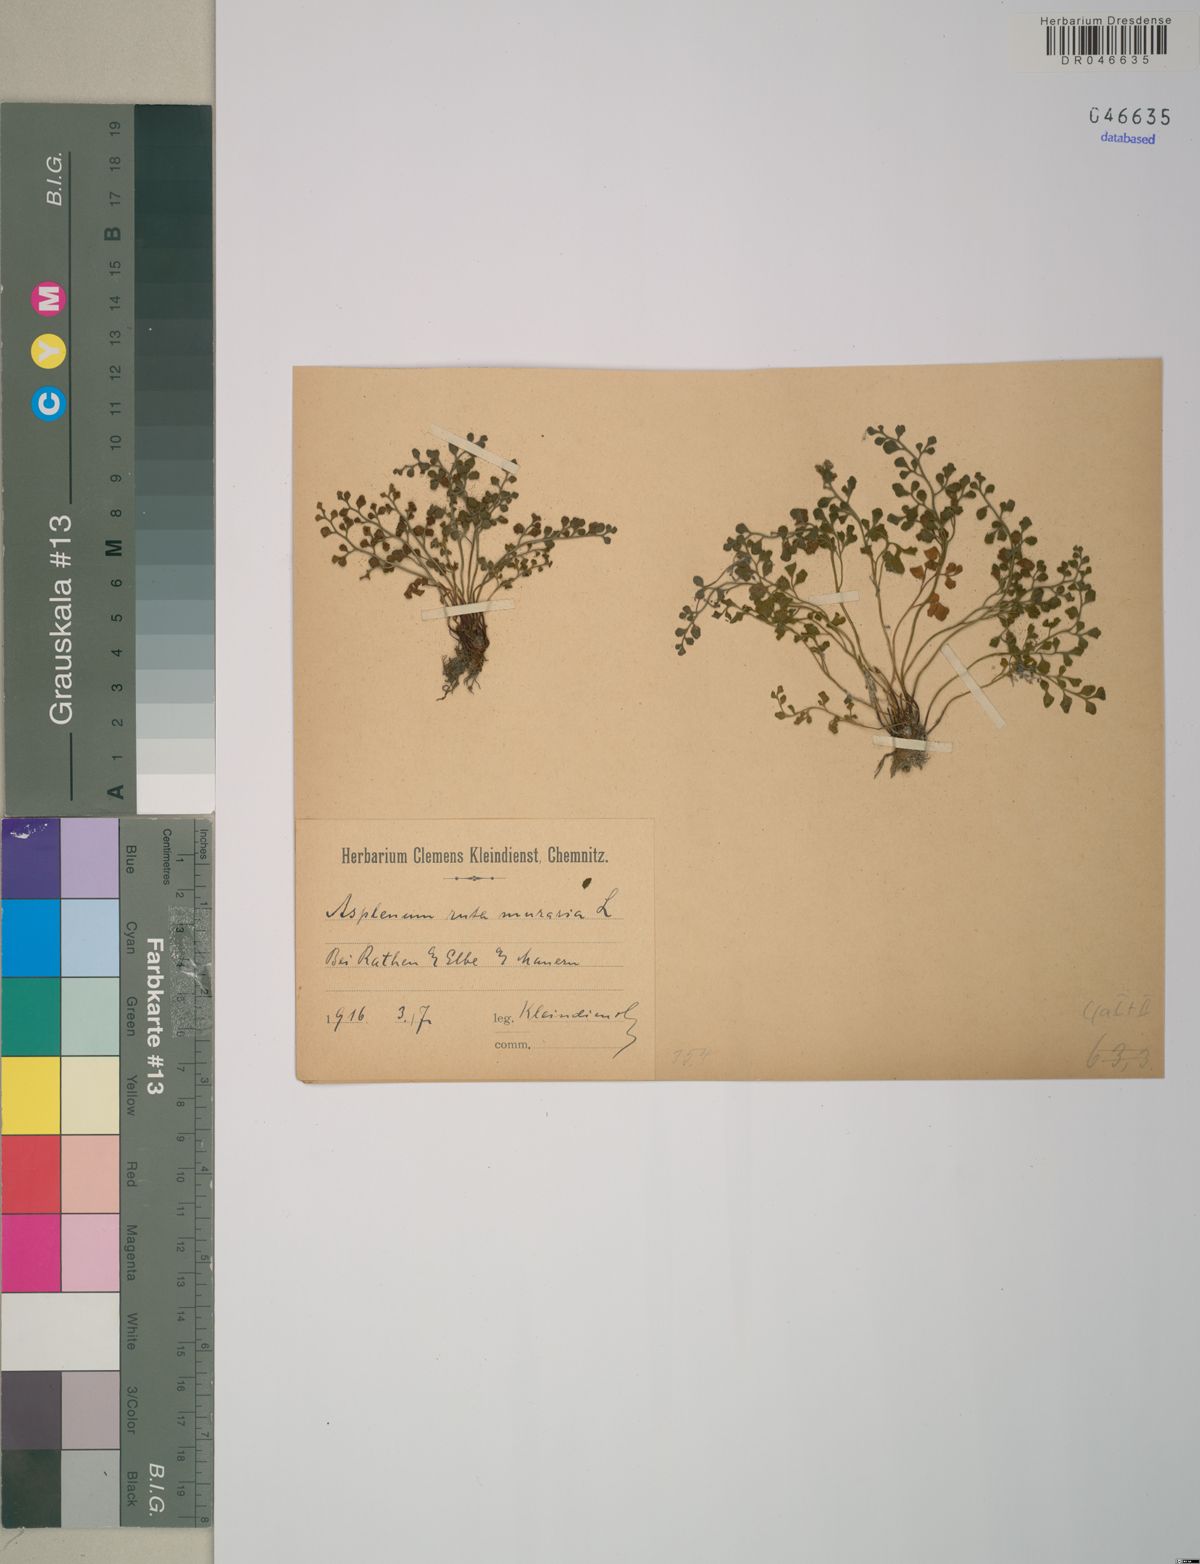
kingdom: Plantae
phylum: Tracheophyta
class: Polypodiopsida
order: Polypodiales
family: Aspleniaceae
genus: Asplenium
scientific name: Asplenium ruta-muraria
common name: Wall-rue
